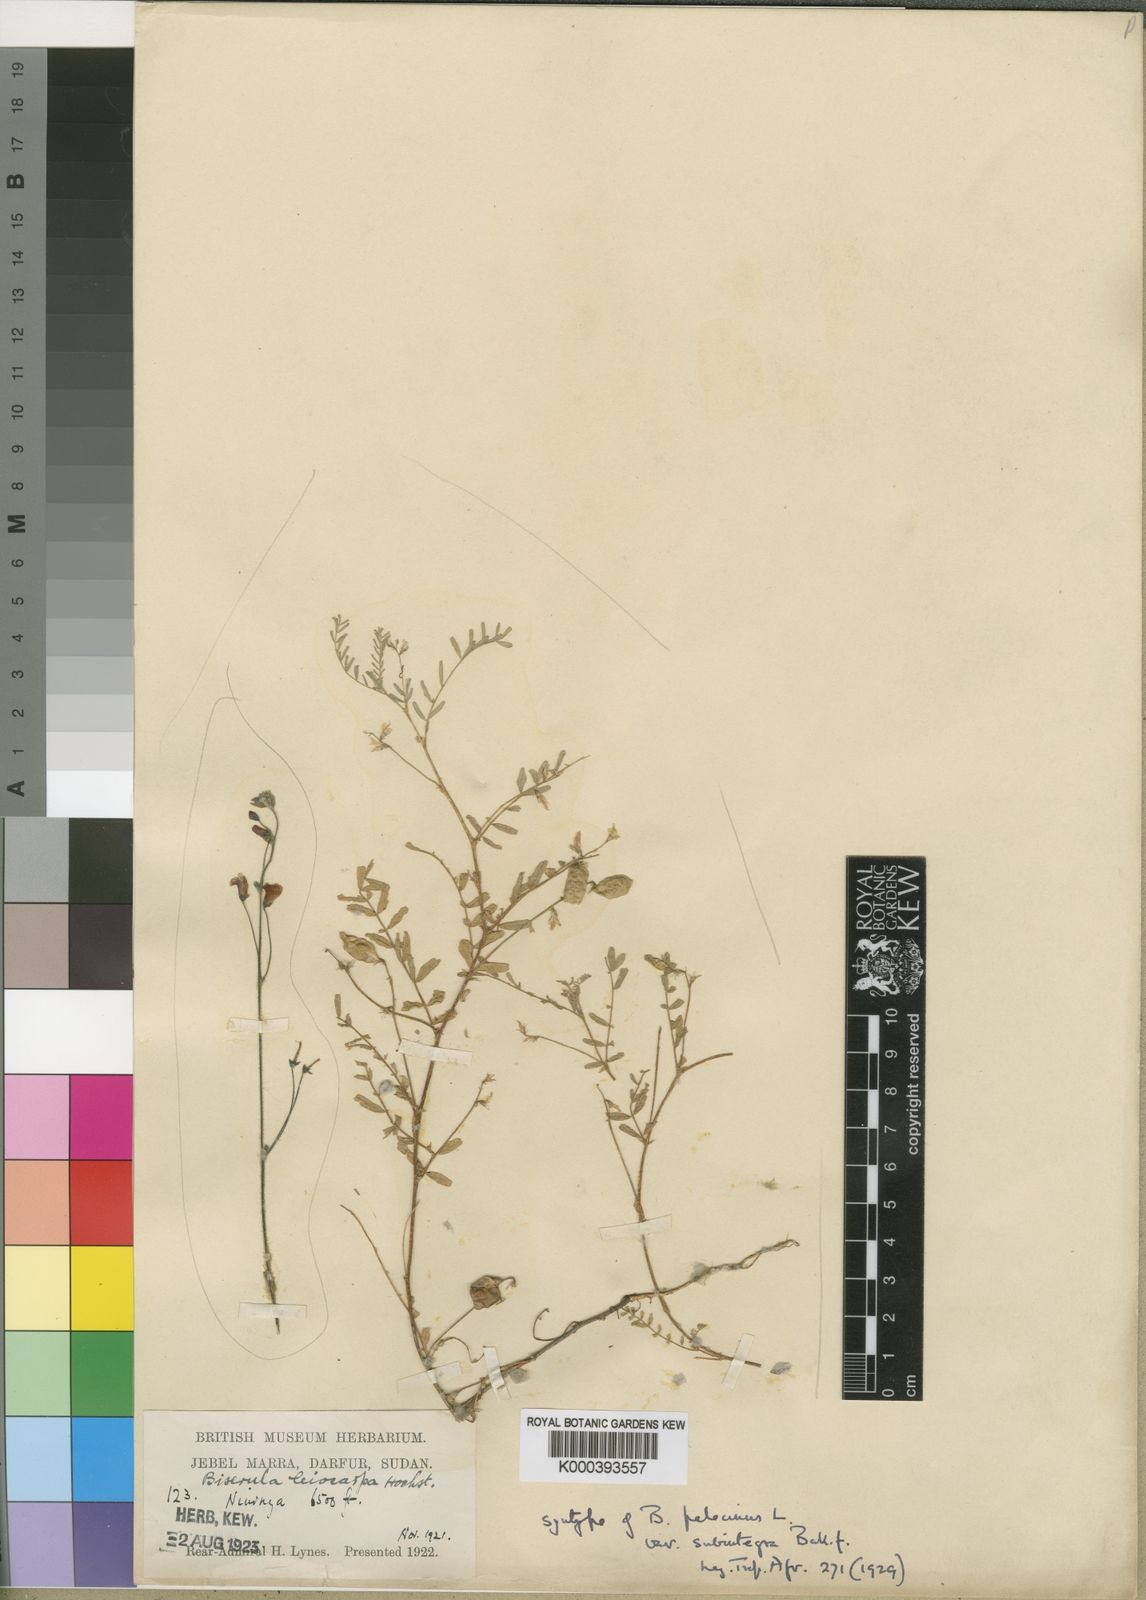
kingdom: Plantae
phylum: Tracheophyta
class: Magnoliopsida
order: Fabales
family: Fabaceae
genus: Biserrula
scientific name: Biserrula pelecinus
